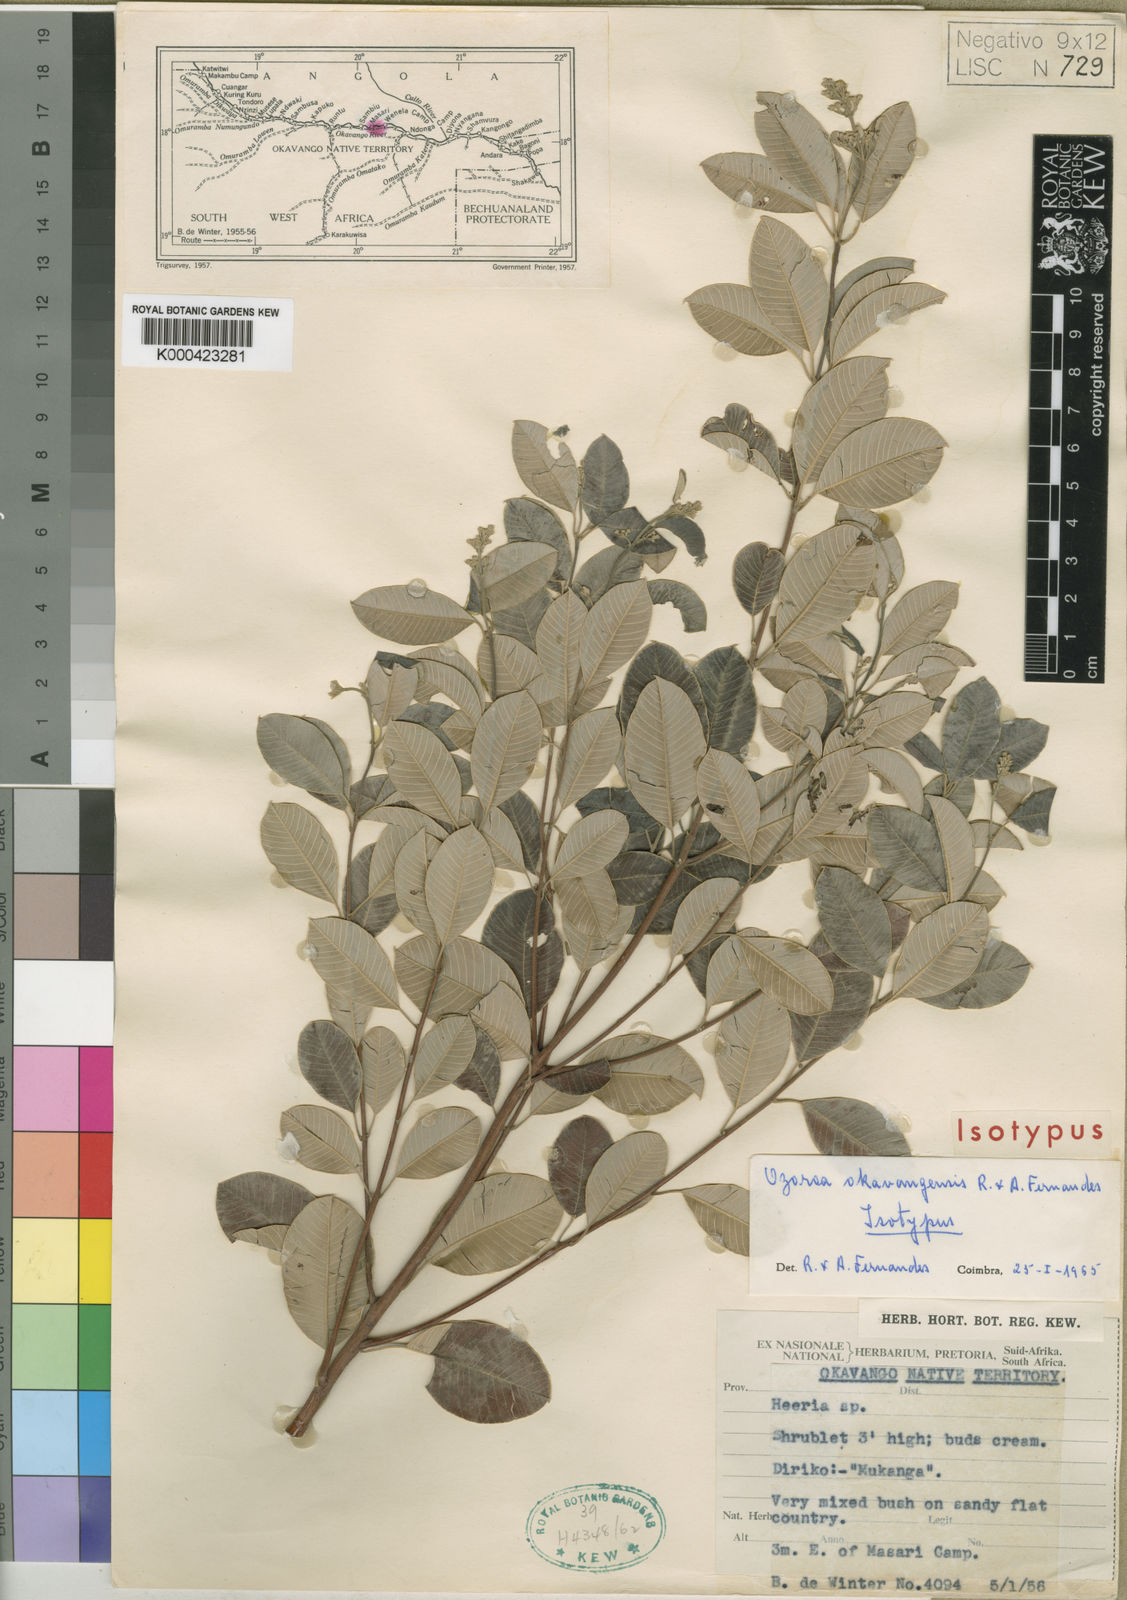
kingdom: Plantae
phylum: Tracheophyta
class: Magnoliopsida
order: Sapindales
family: Anacardiaceae
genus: Ozoroa
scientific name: Ozoroa okavangensis
